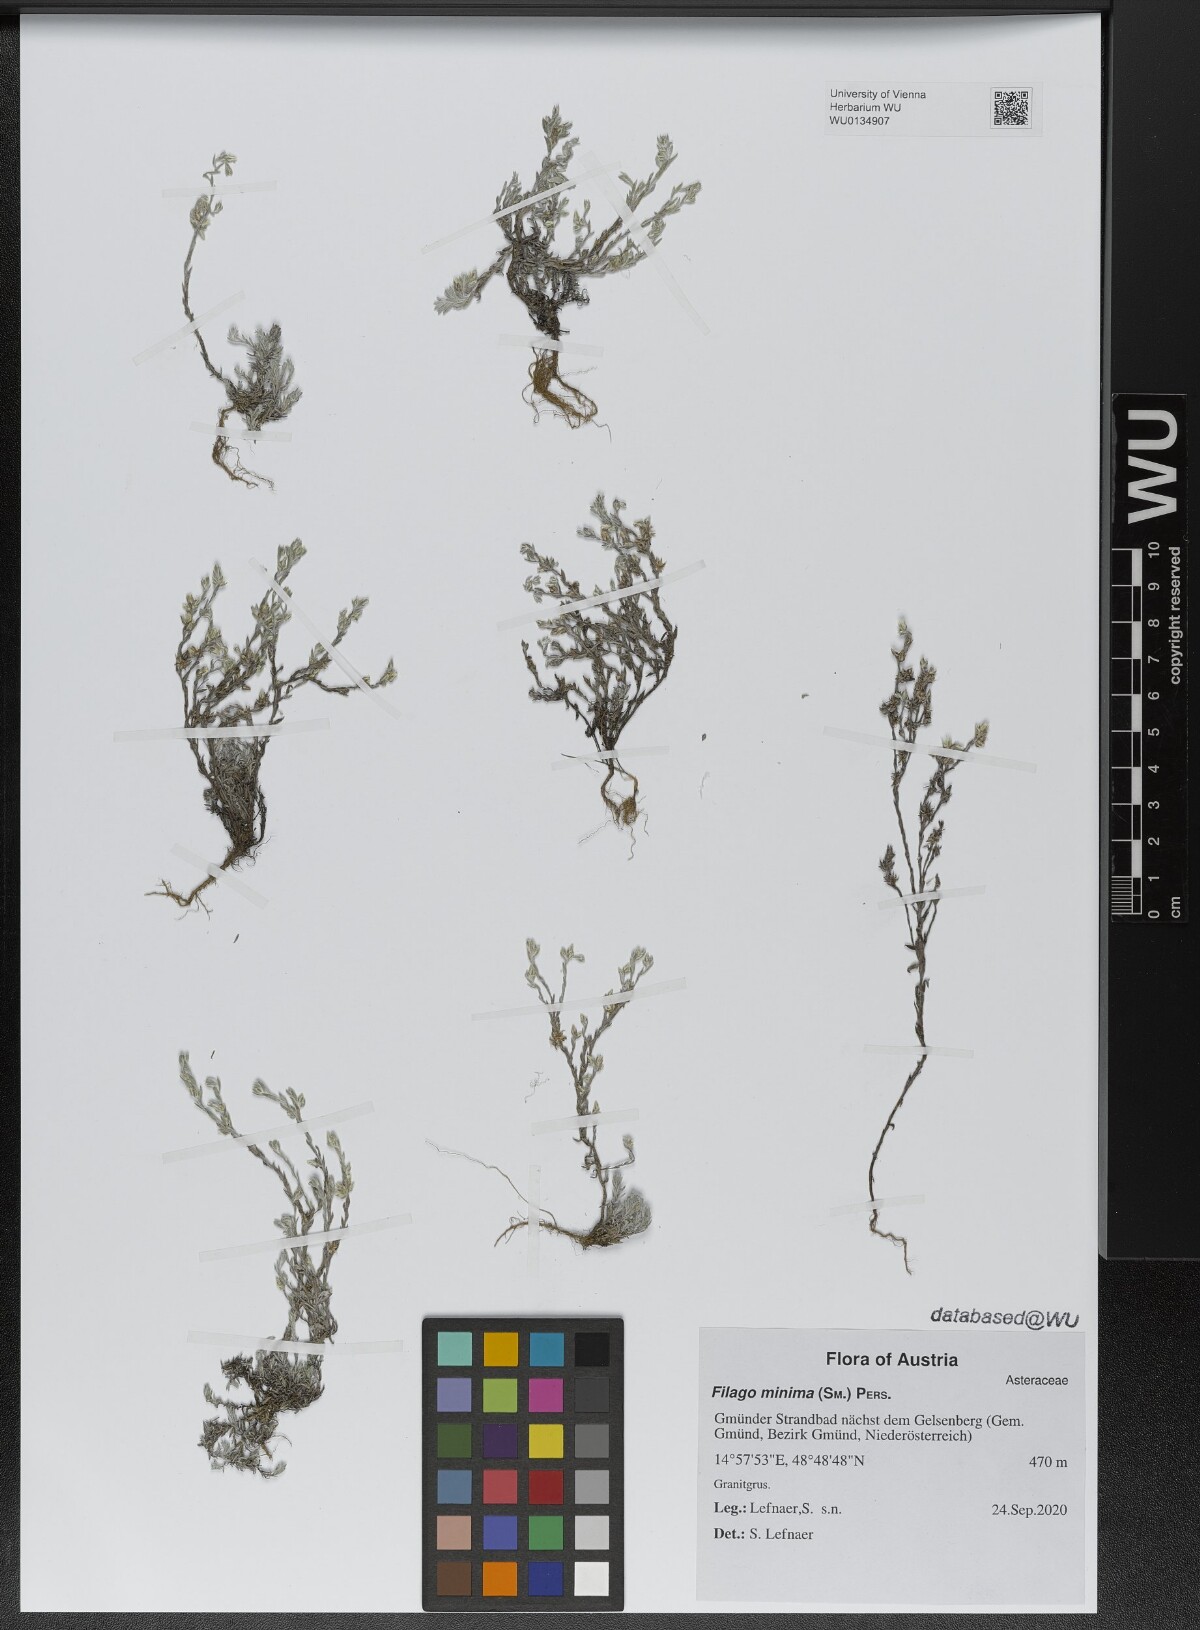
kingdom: Plantae
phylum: Tracheophyta
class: Magnoliopsida
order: Asterales
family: Asteraceae
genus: Logfia
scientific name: Logfia minima
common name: Little cottonrose
